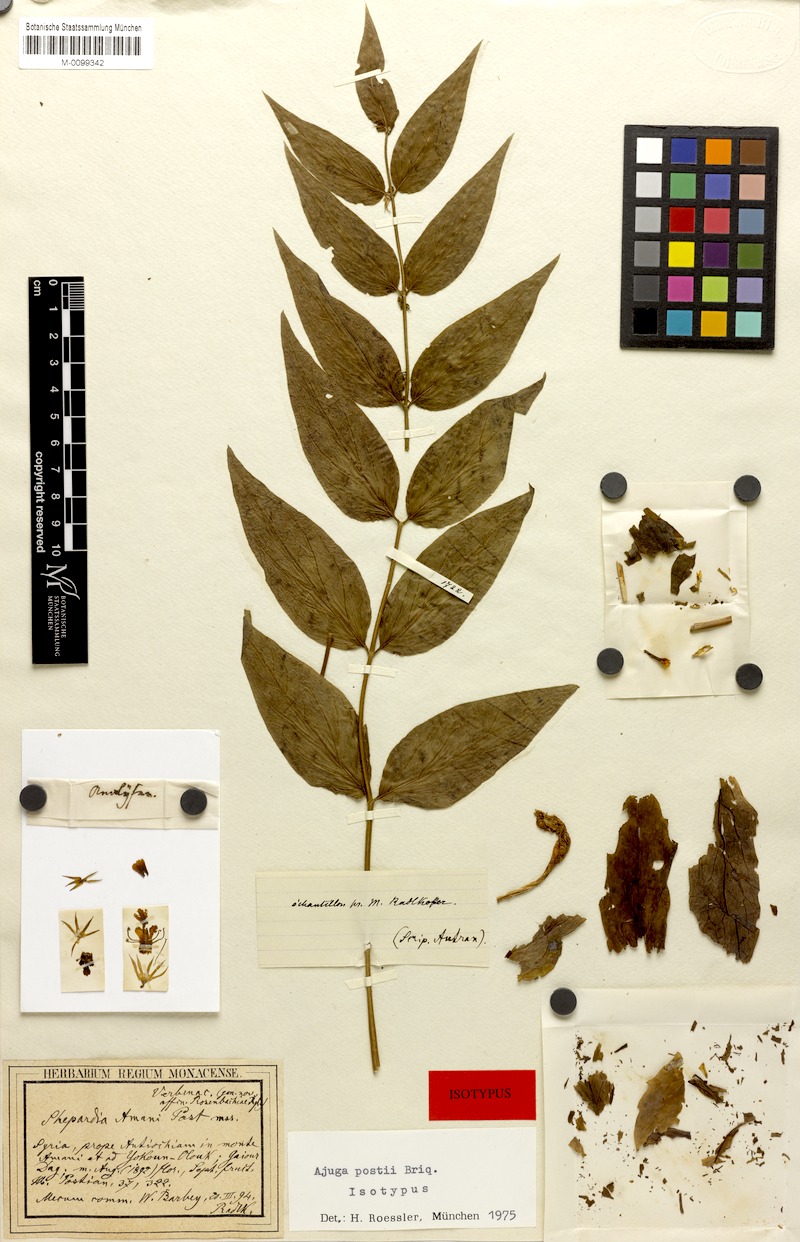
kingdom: Plantae
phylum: Tracheophyta
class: Magnoliopsida
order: Lamiales
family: Lamiaceae
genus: Ajuga
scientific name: Ajuga postii
